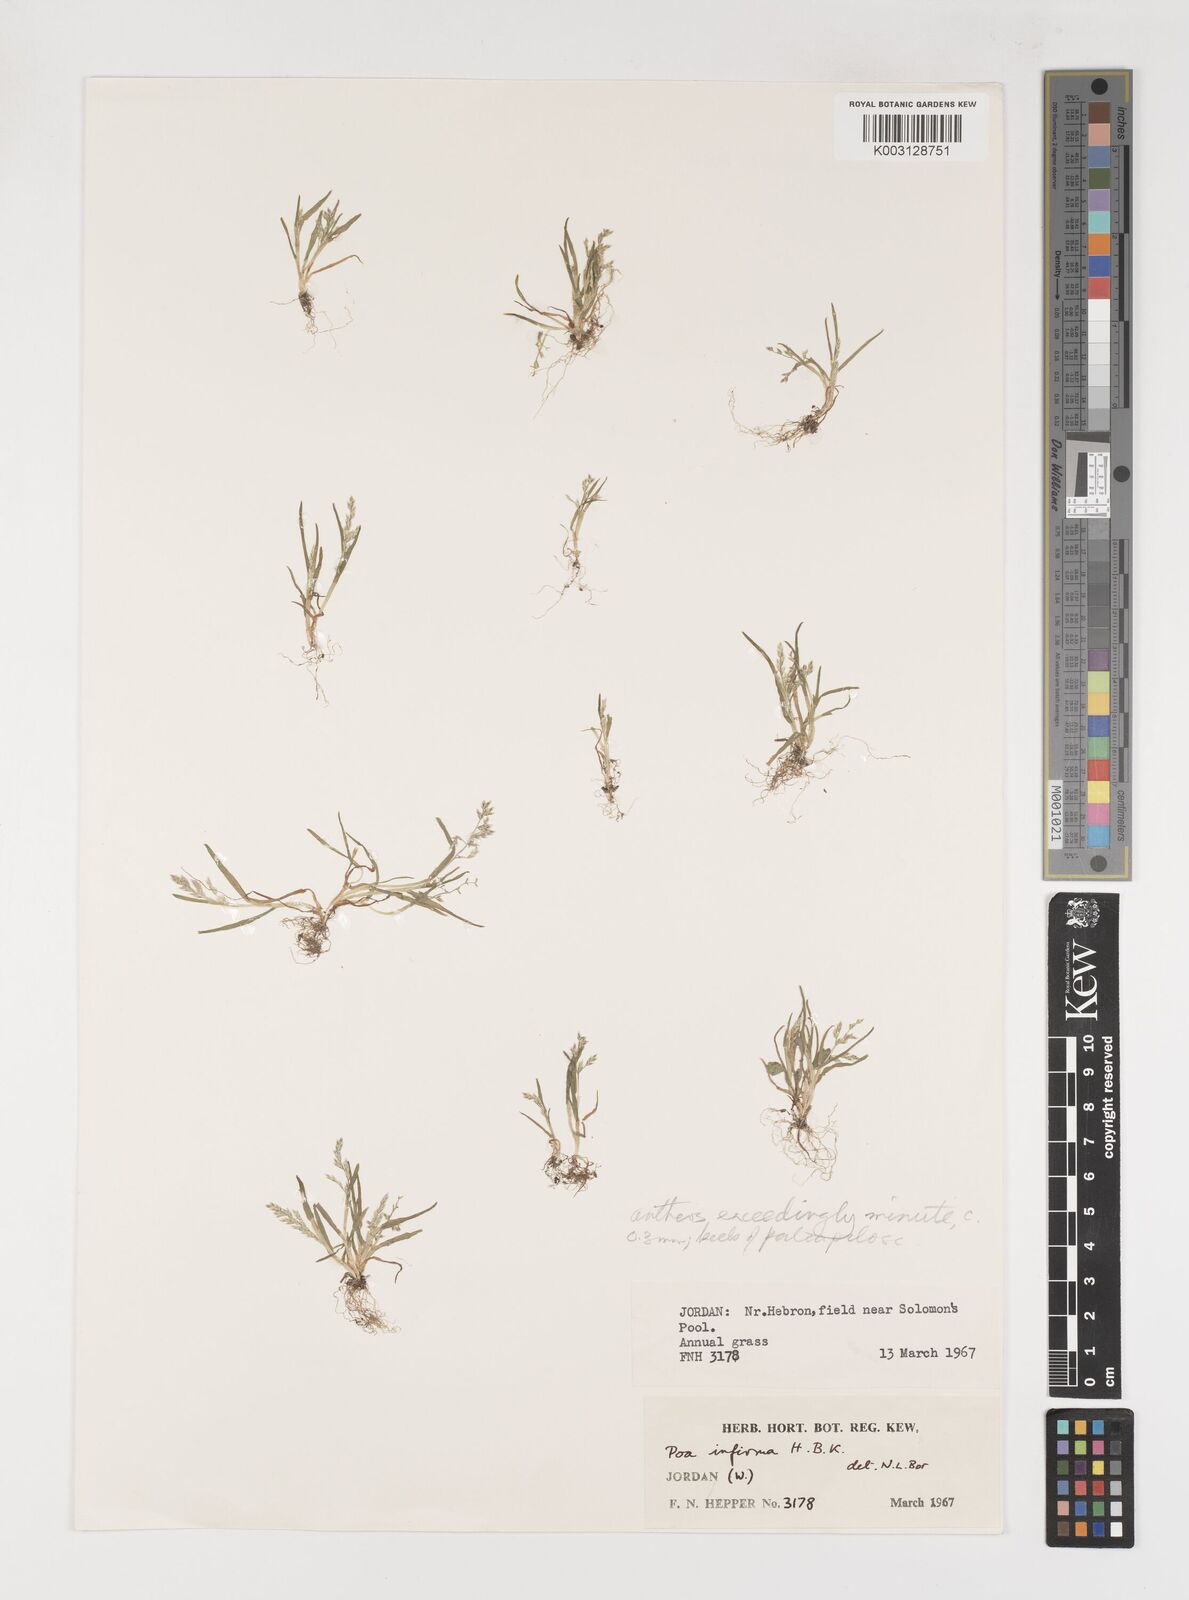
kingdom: Plantae
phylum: Tracheophyta
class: Liliopsida
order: Poales
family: Poaceae
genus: Poa
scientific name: Poa infirma
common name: Weak bluegrass
